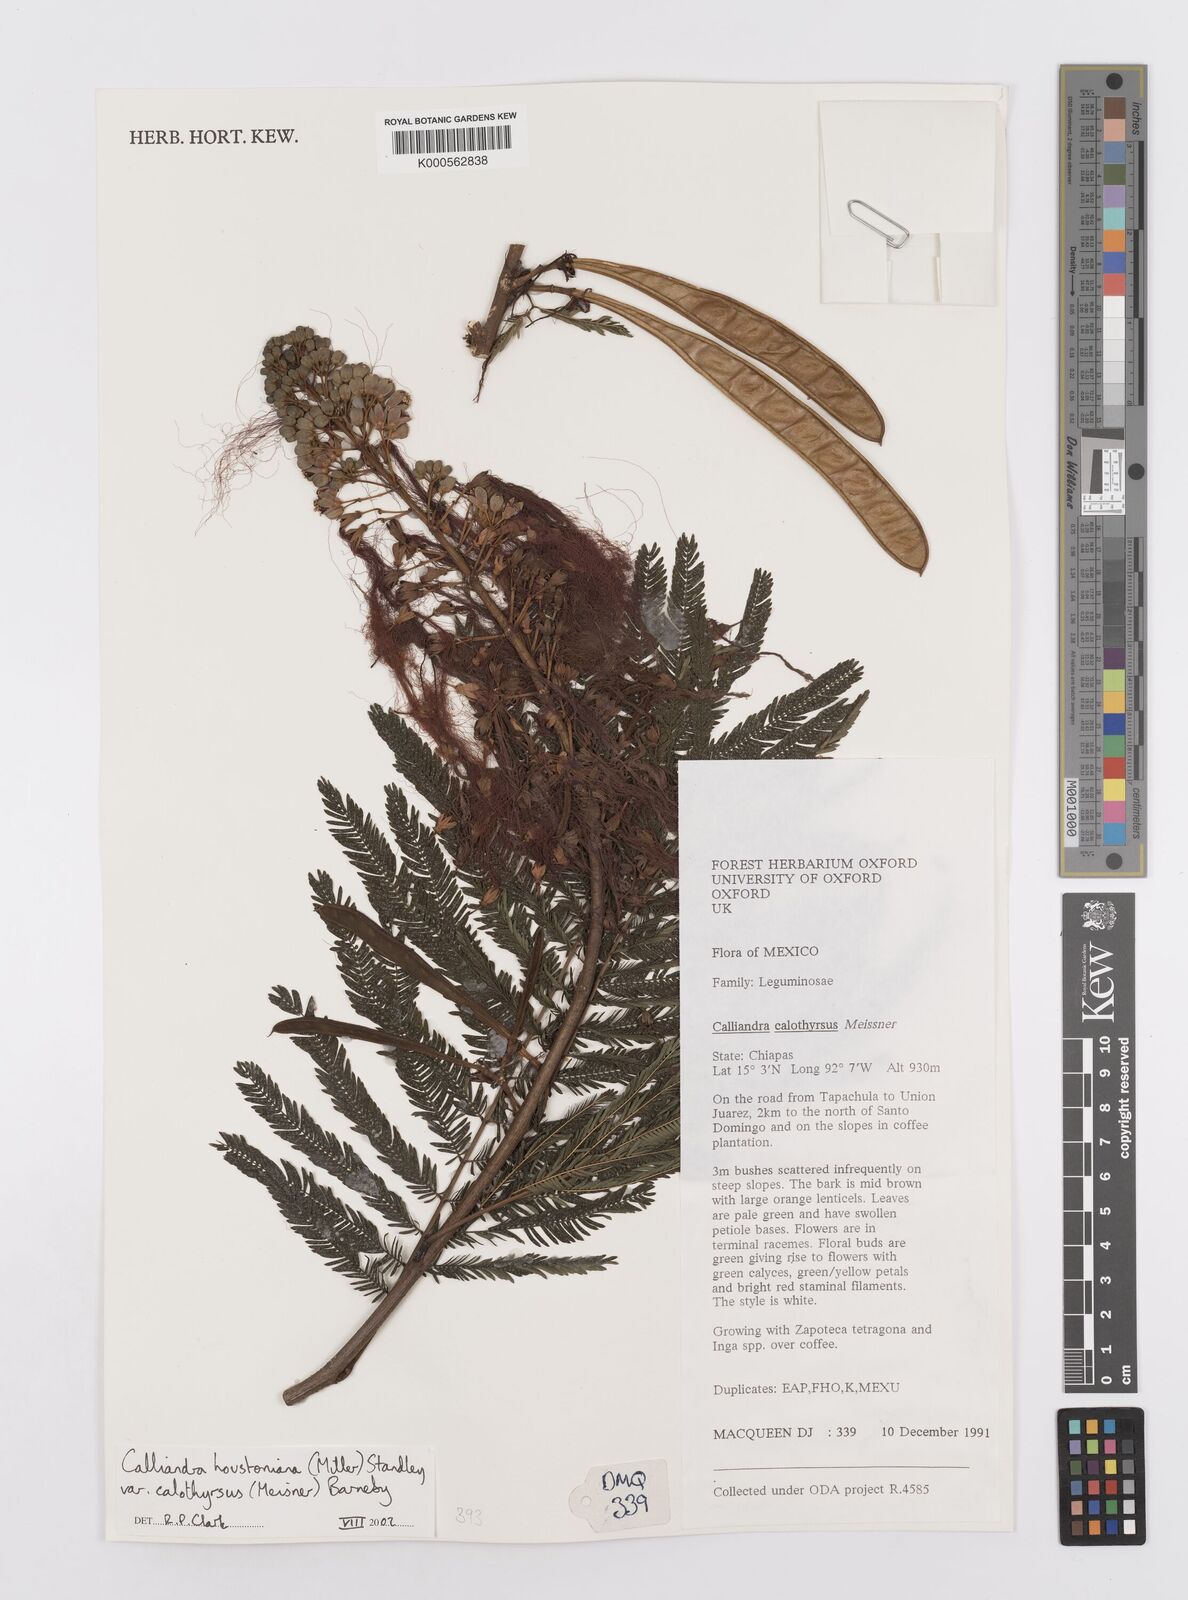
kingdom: Plantae
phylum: Tracheophyta
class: Magnoliopsida
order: Fabales
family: Fabaceae
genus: Calliandra
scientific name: Calliandra houstoniana
